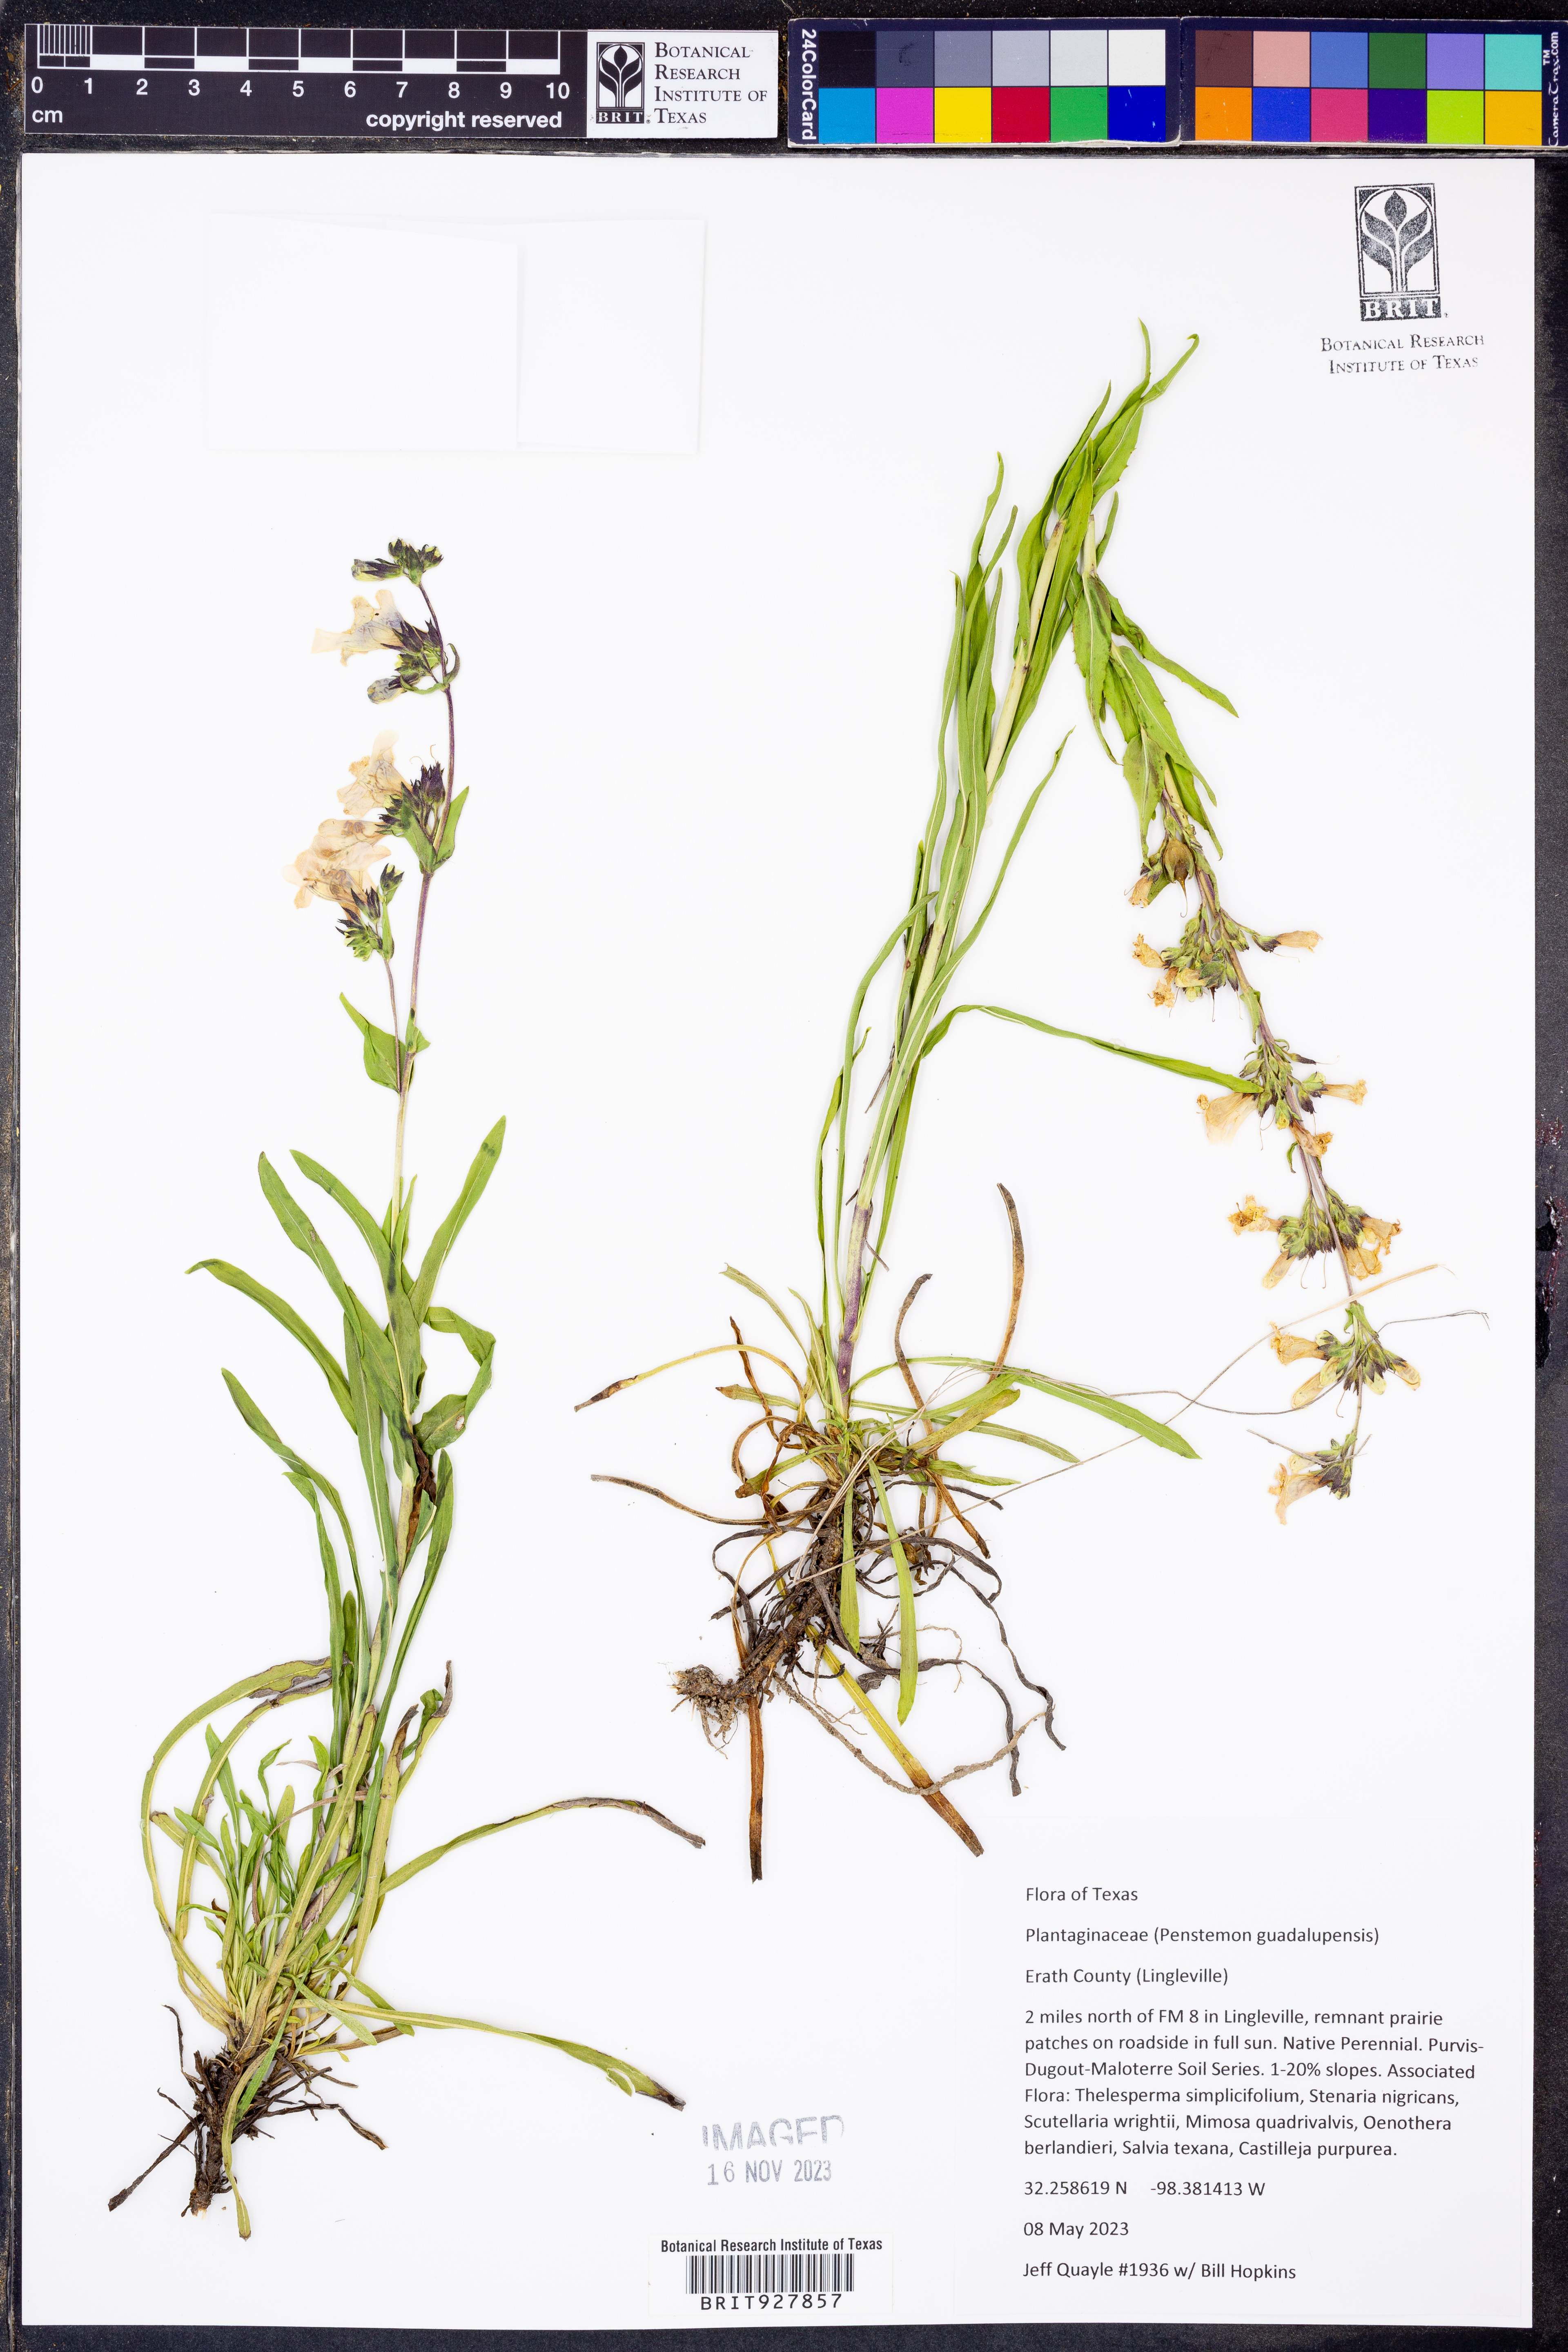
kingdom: Plantae
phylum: Tracheophyta
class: Magnoliopsida
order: Lamiales
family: Plantaginaceae
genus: Penstemon
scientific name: Penstemon guadalupensis
